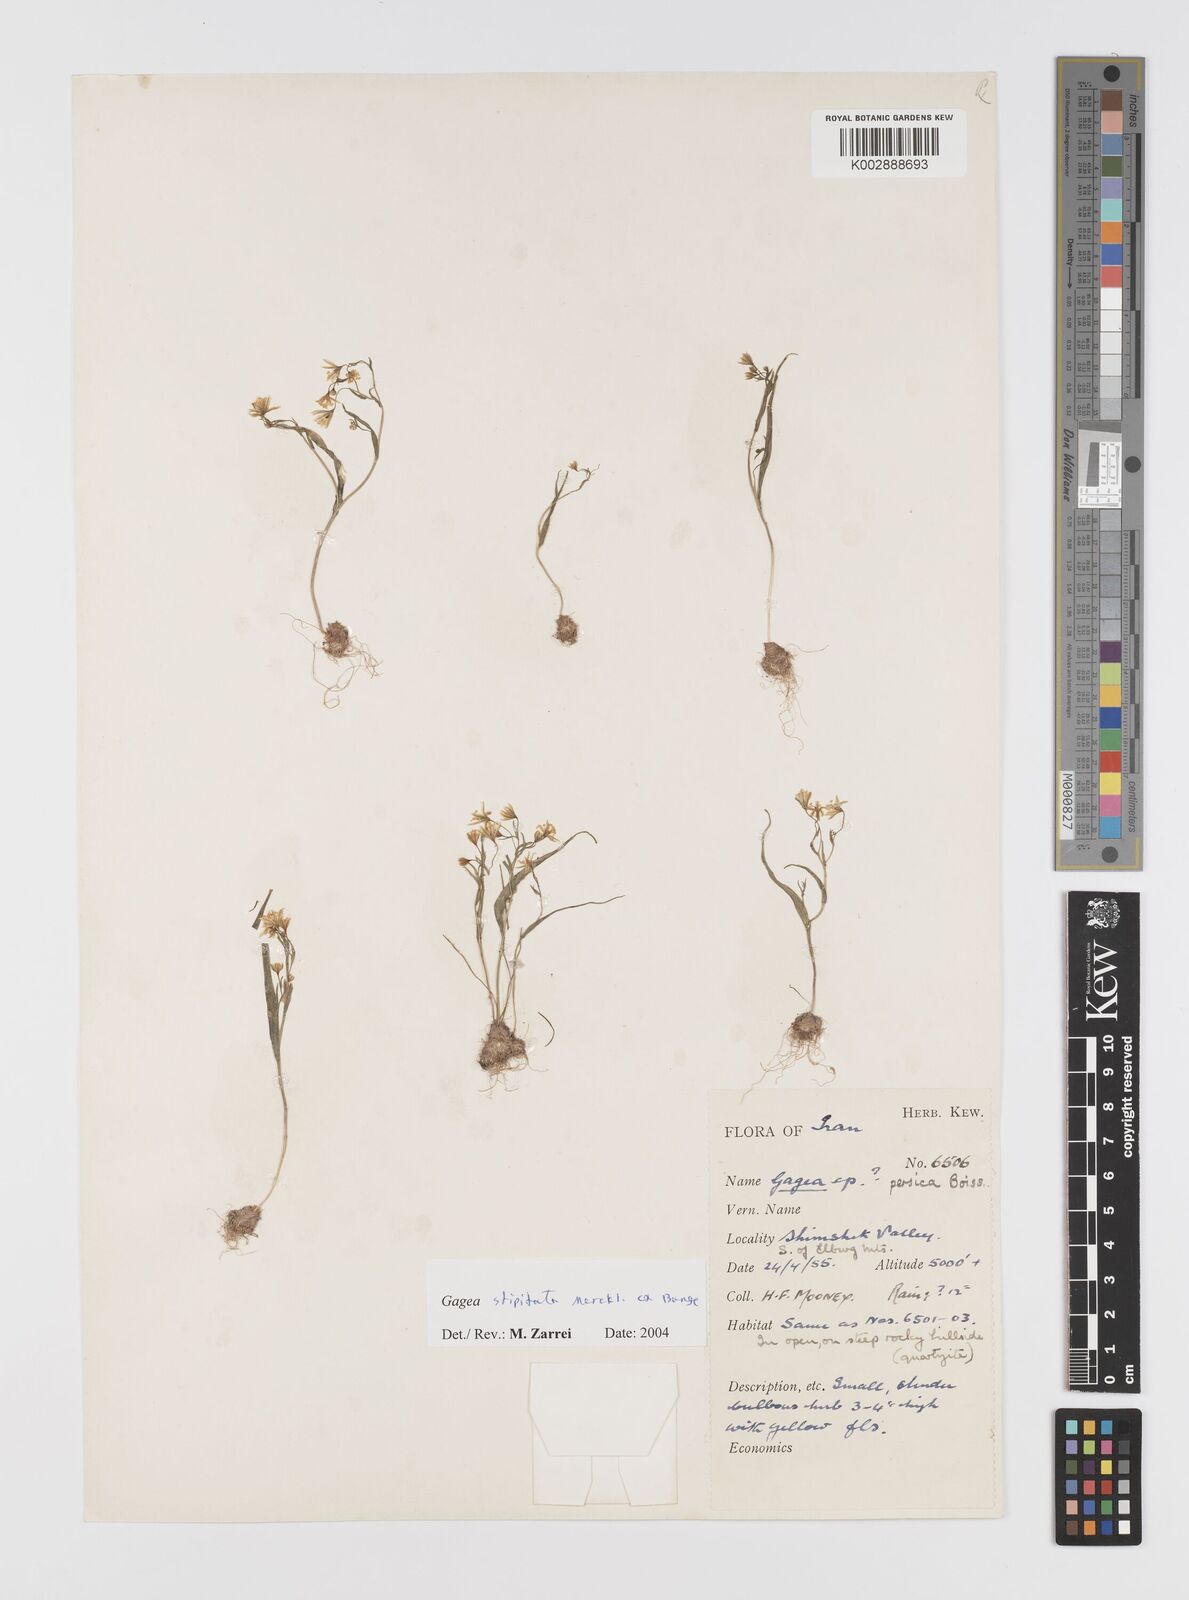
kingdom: Plantae
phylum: Tracheophyta
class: Liliopsida
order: Liliales
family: Liliaceae
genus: Gagea
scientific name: Gagea kunawurensis
